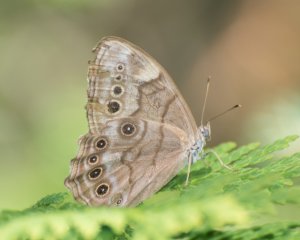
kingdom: Animalia
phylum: Arthropoda
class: Insecta
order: Lepidoptera
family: Nymphalidae
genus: Lethe
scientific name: Lethe anthedon
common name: Northern Pearly-Eye
